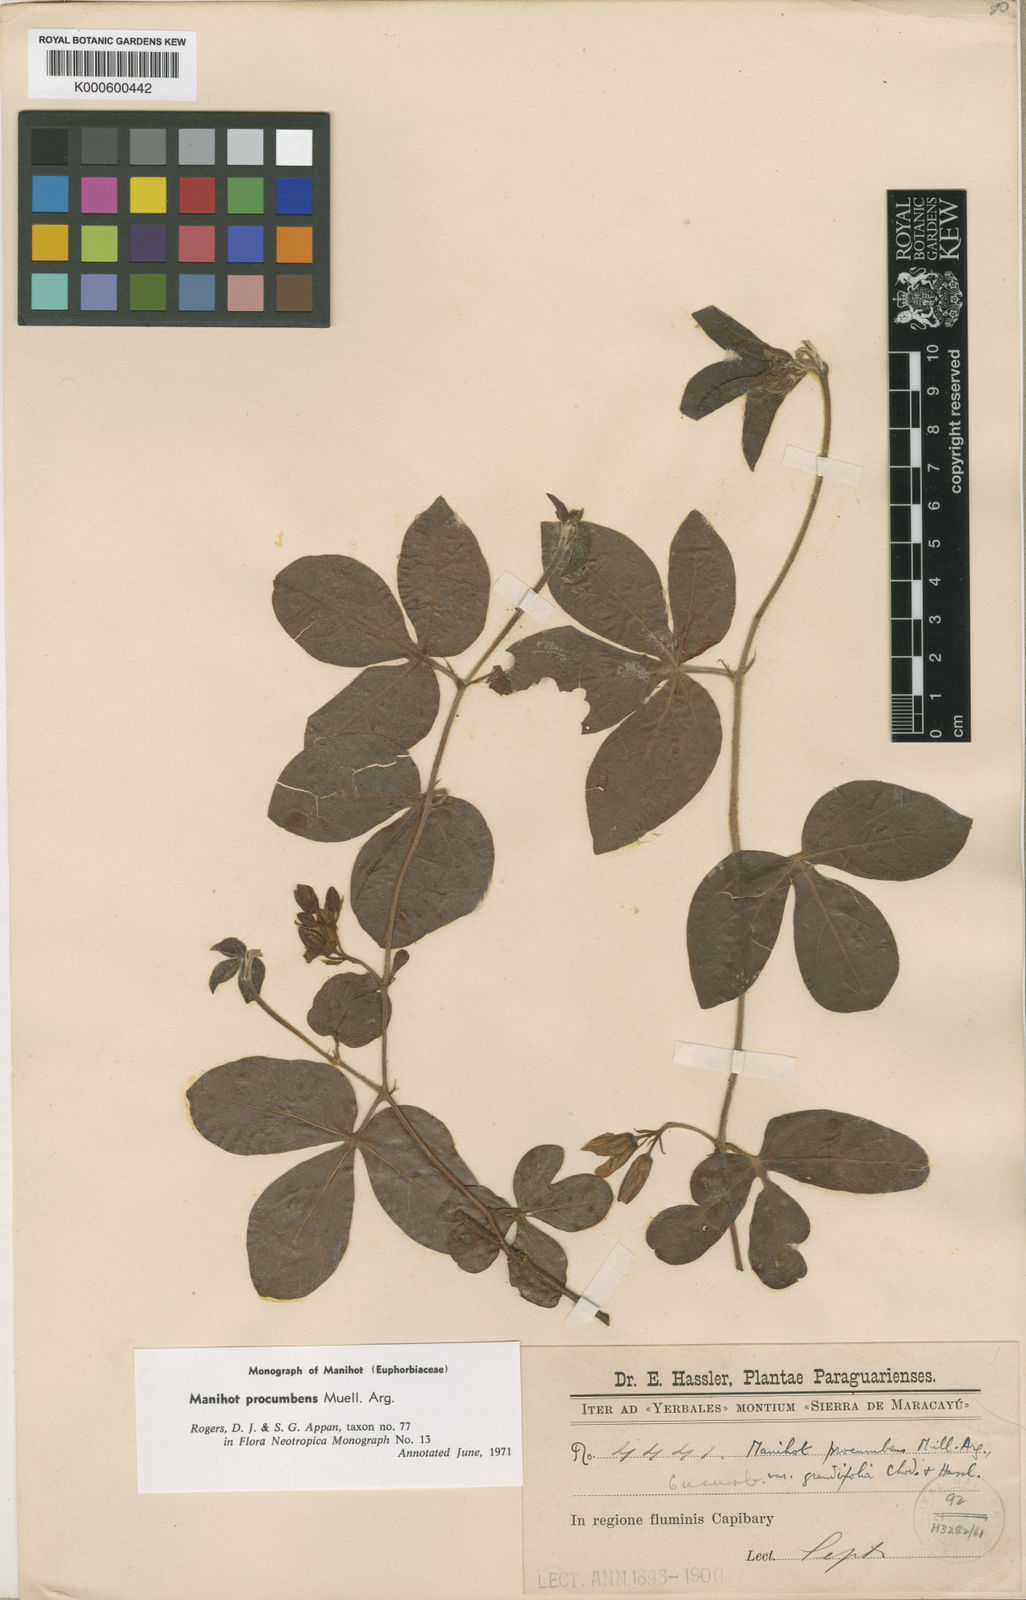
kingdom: Plantae
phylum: Tracheophyta
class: Magnoliopsida
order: Malpighiales
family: Euphorbiaceae
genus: Manihot
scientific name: Manihot
